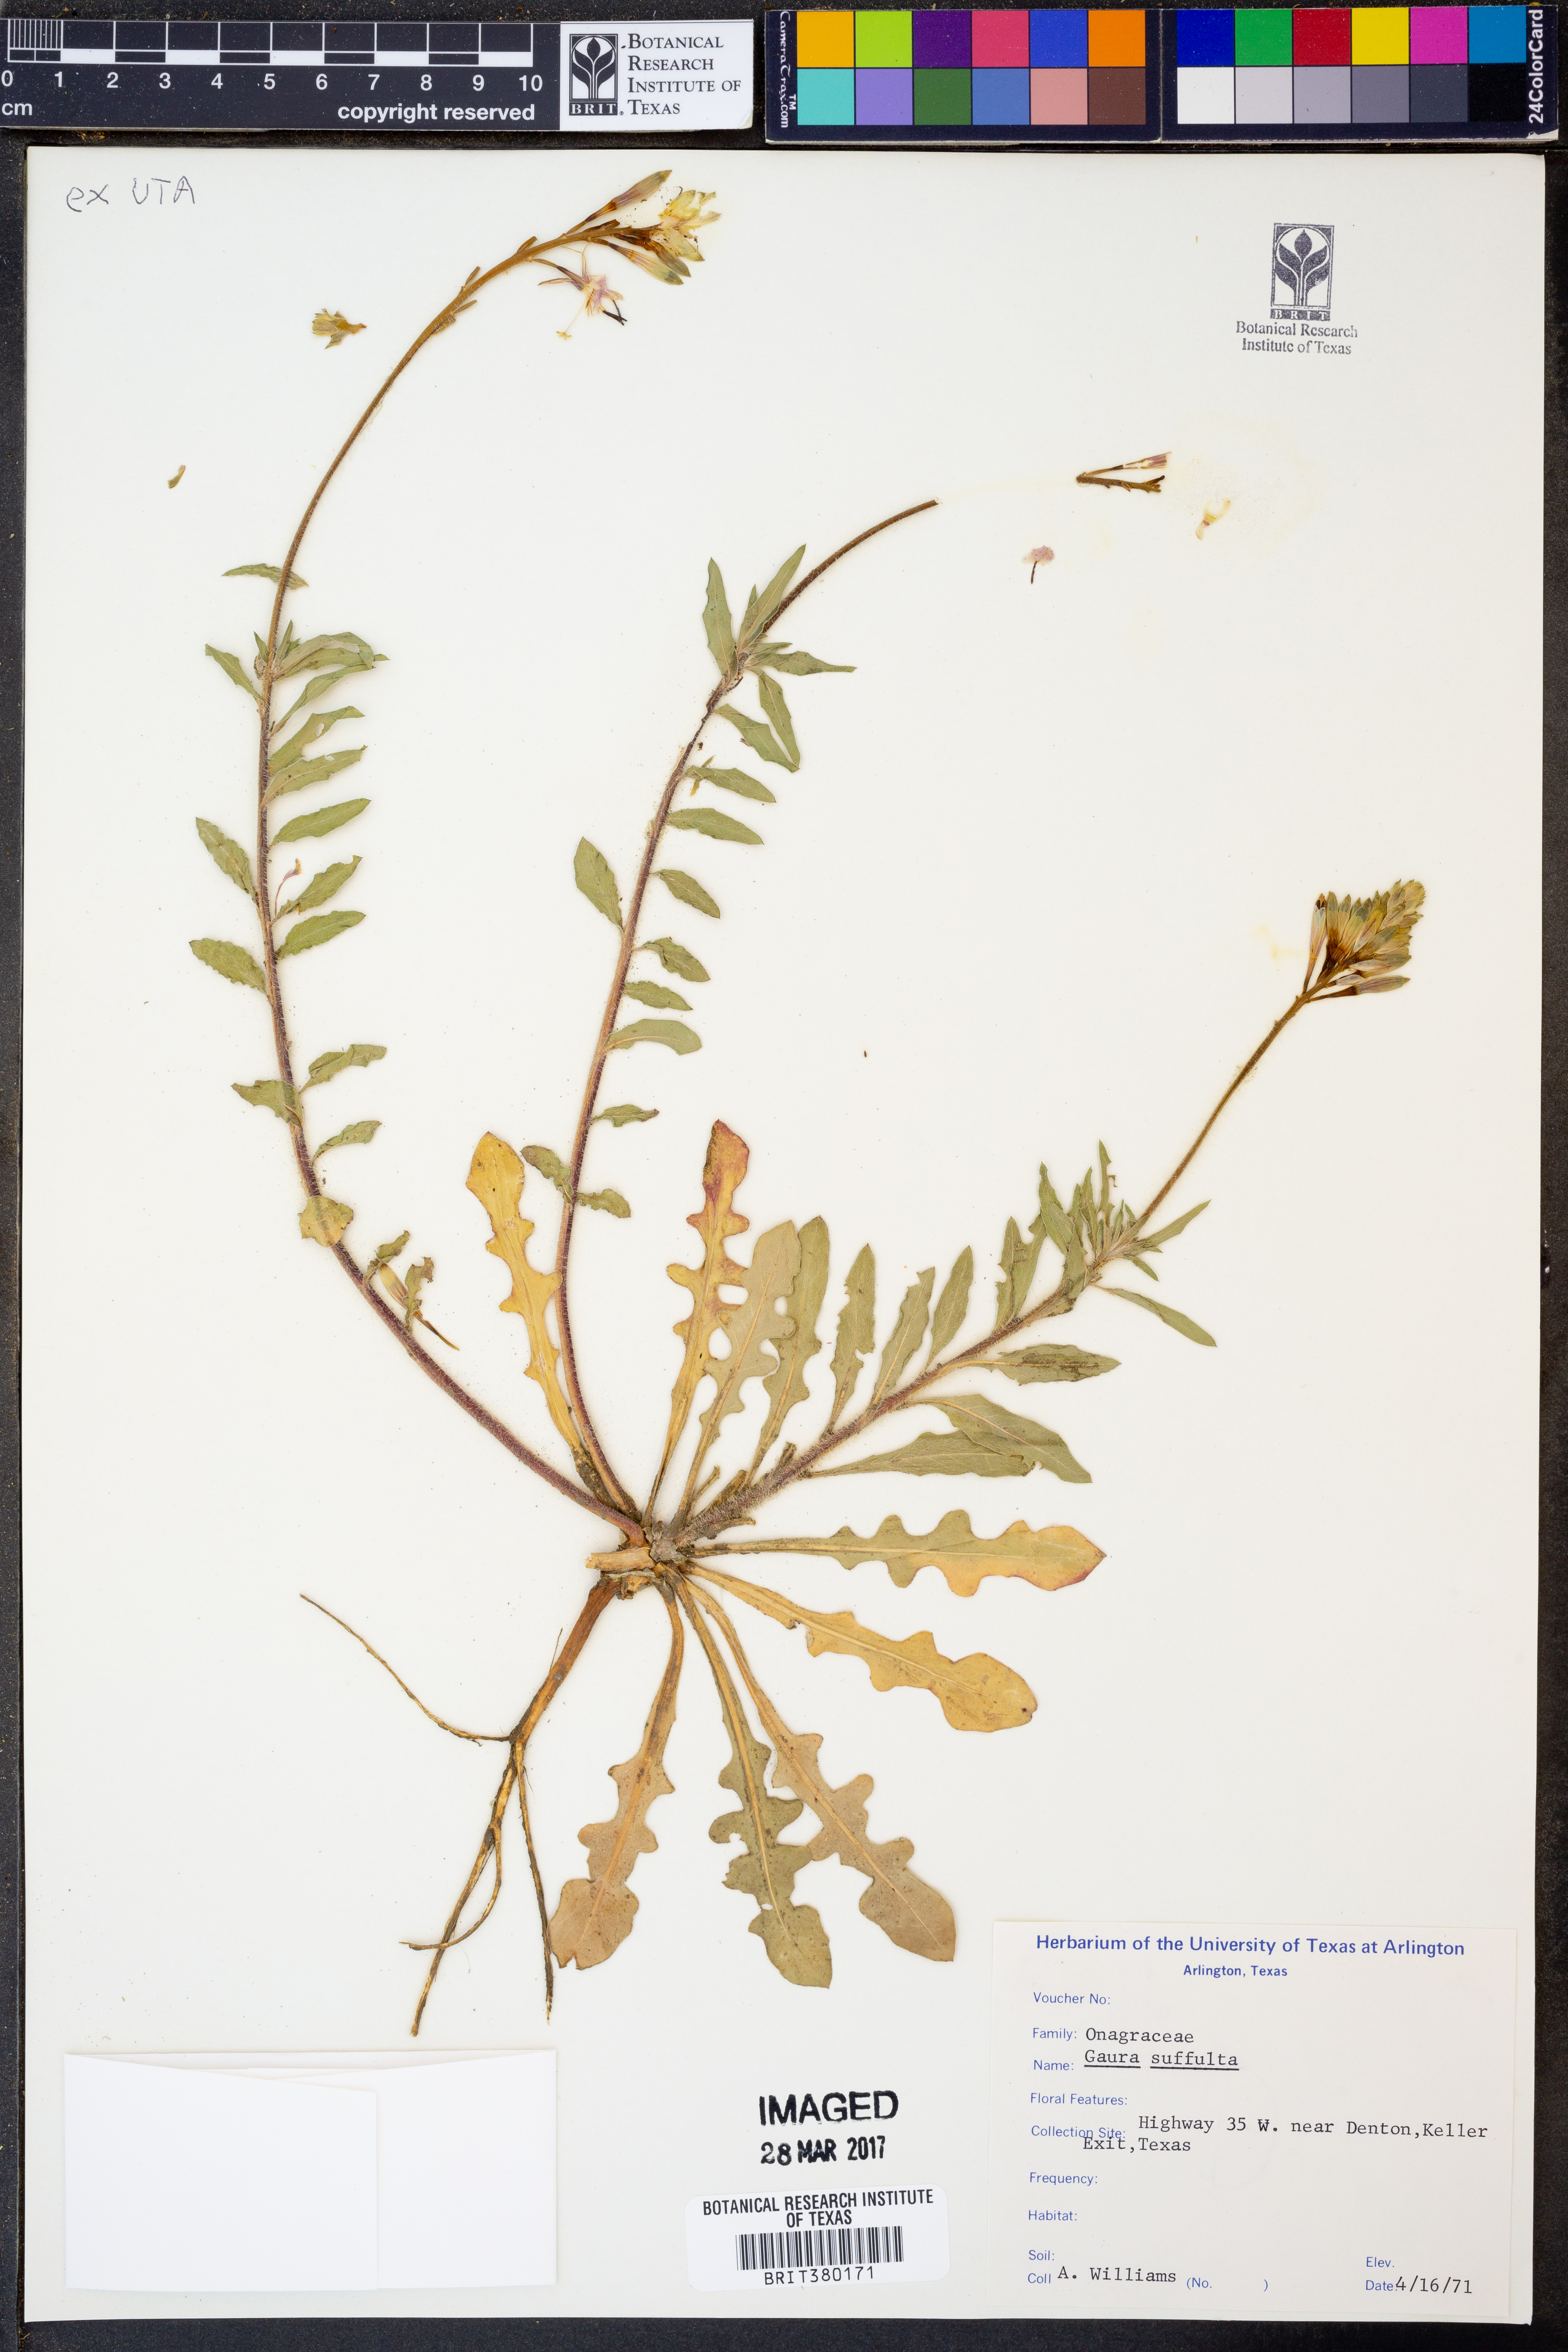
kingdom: Plantae
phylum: Tracheophyta
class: Magnoliopsida
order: Myrtales
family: Onagraceae
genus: Oenothera
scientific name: Oenothera Gaura suffulta
